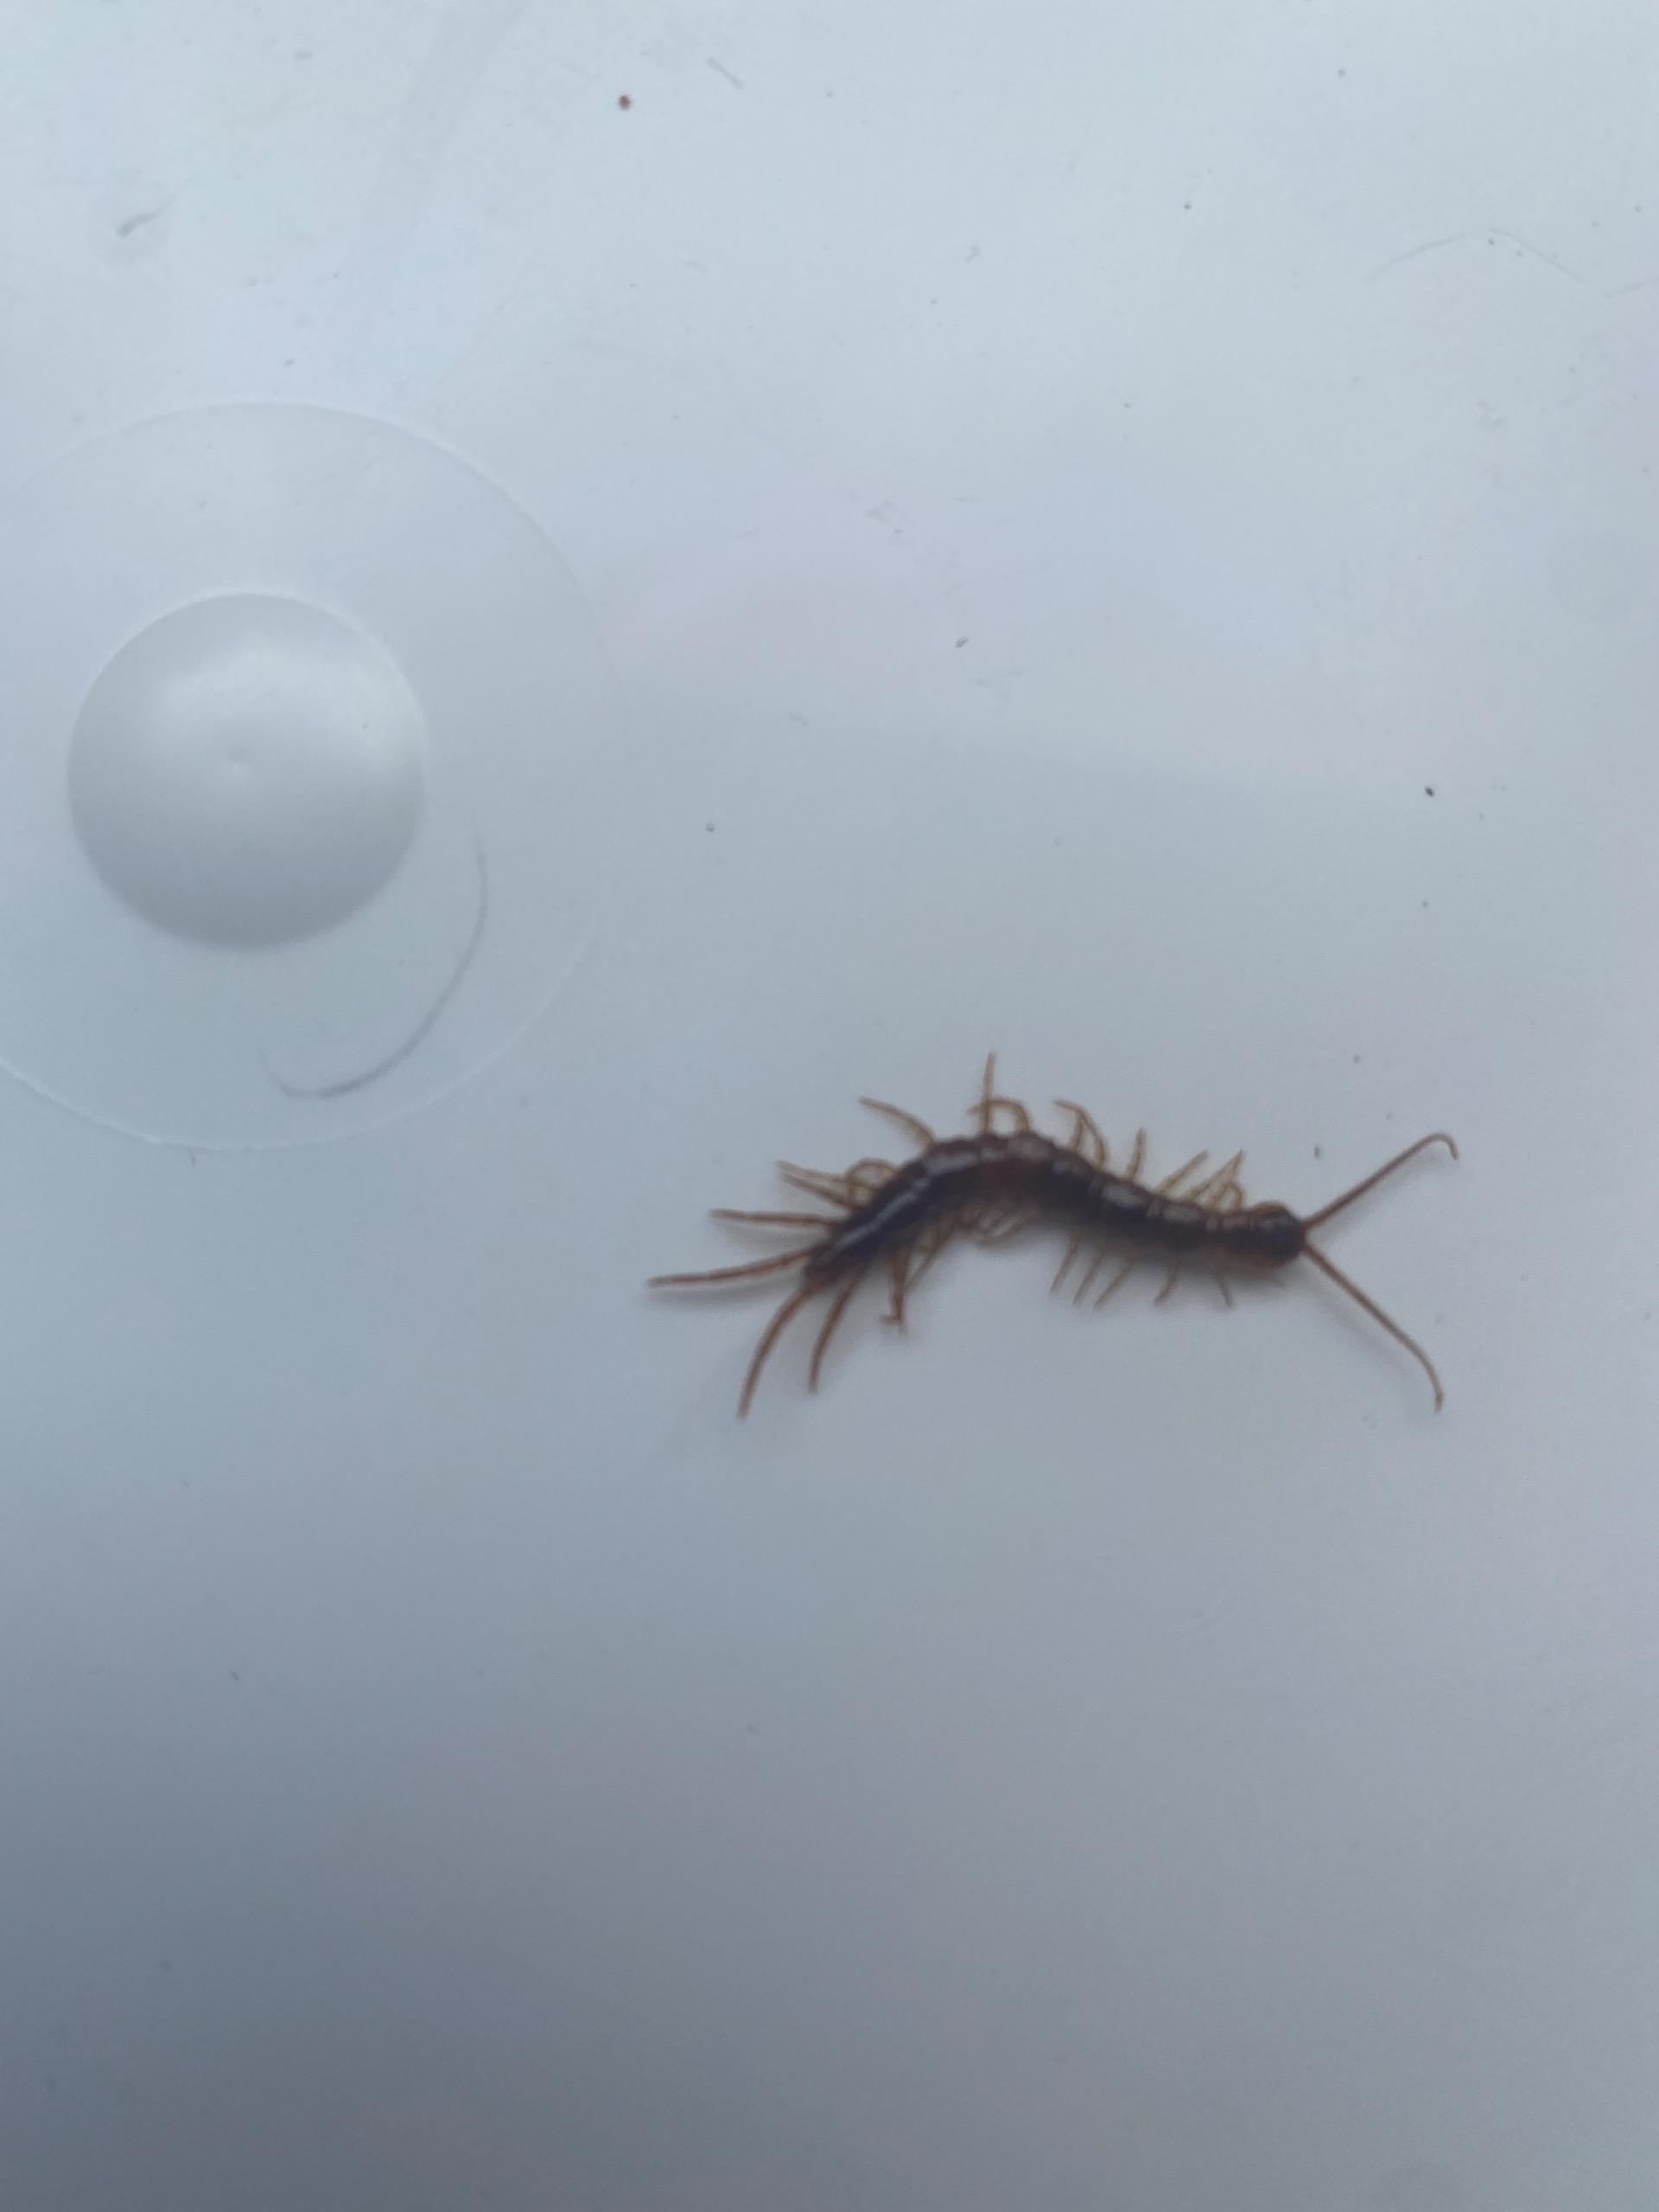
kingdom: Animalia
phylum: Arthropoda
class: Chilopoda
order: Lithobiomorpha
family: Lithobiidae
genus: Lithobius
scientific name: Lithobius forficatus
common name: Stenskolopender
